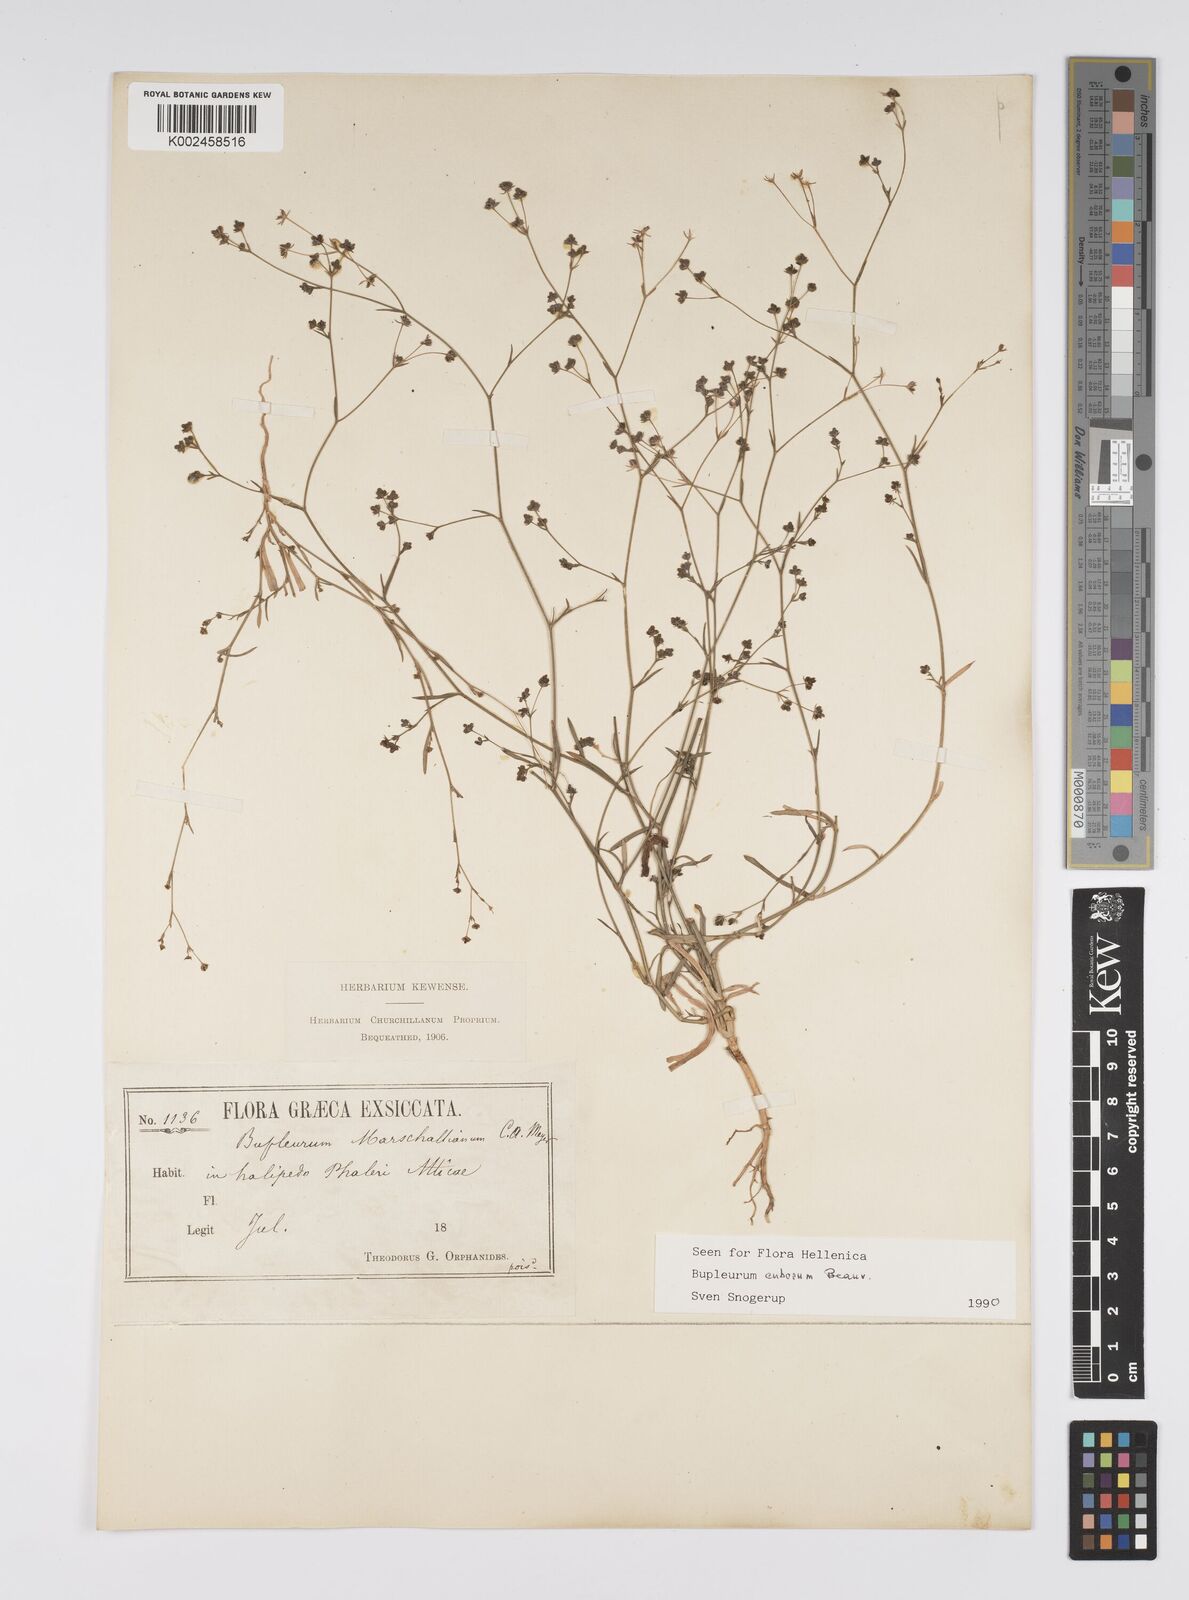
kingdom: Plantae
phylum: Tracheophyta
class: Magnoliopsida
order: Apiales
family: Apiaceae
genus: Bupleurum
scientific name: Bupleurum tenuissimum
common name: Slender hare's-ear
